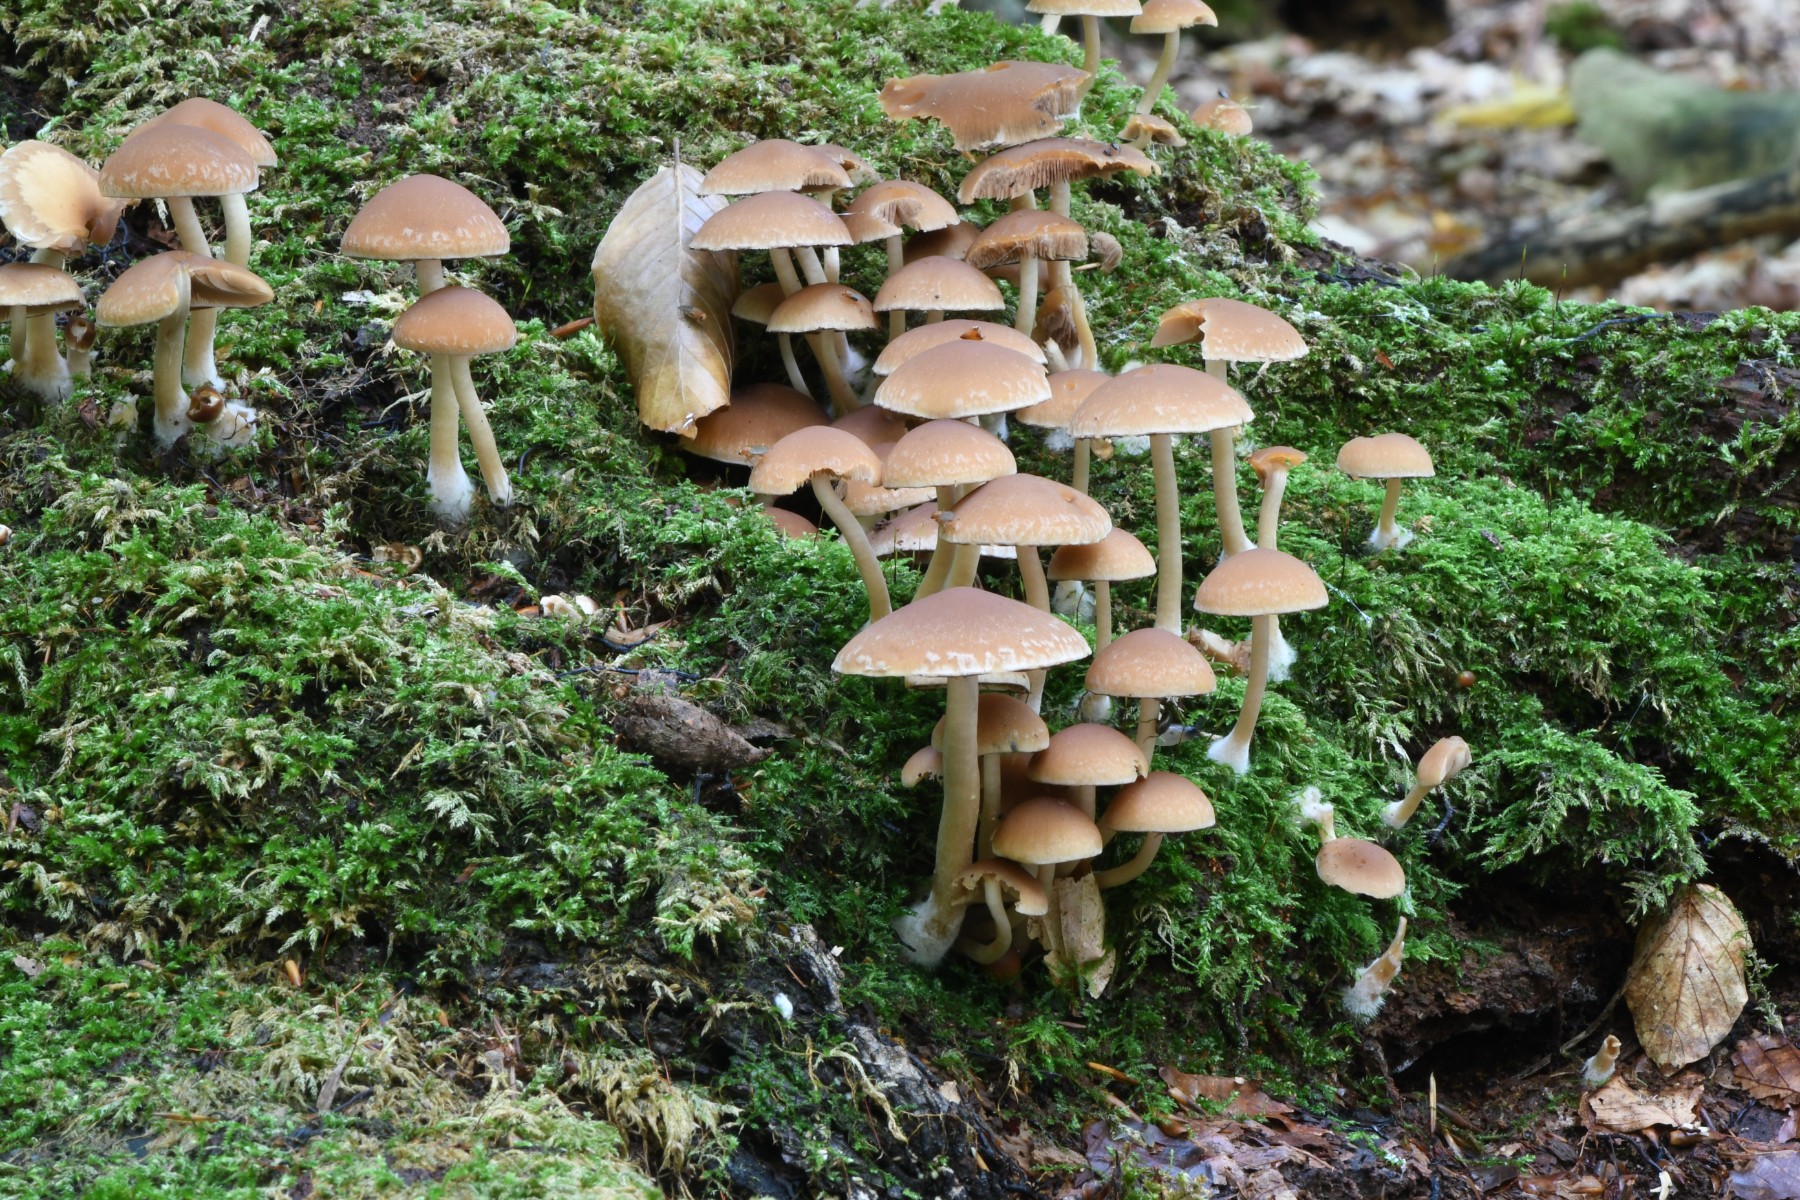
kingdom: Fungi
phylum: Basidiomycota
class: Agaricomycetes
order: Agaricales
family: Psathyrellaceae
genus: Psathyrella
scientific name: Psathyrella piluliformis
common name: lysstokket mørkhat
